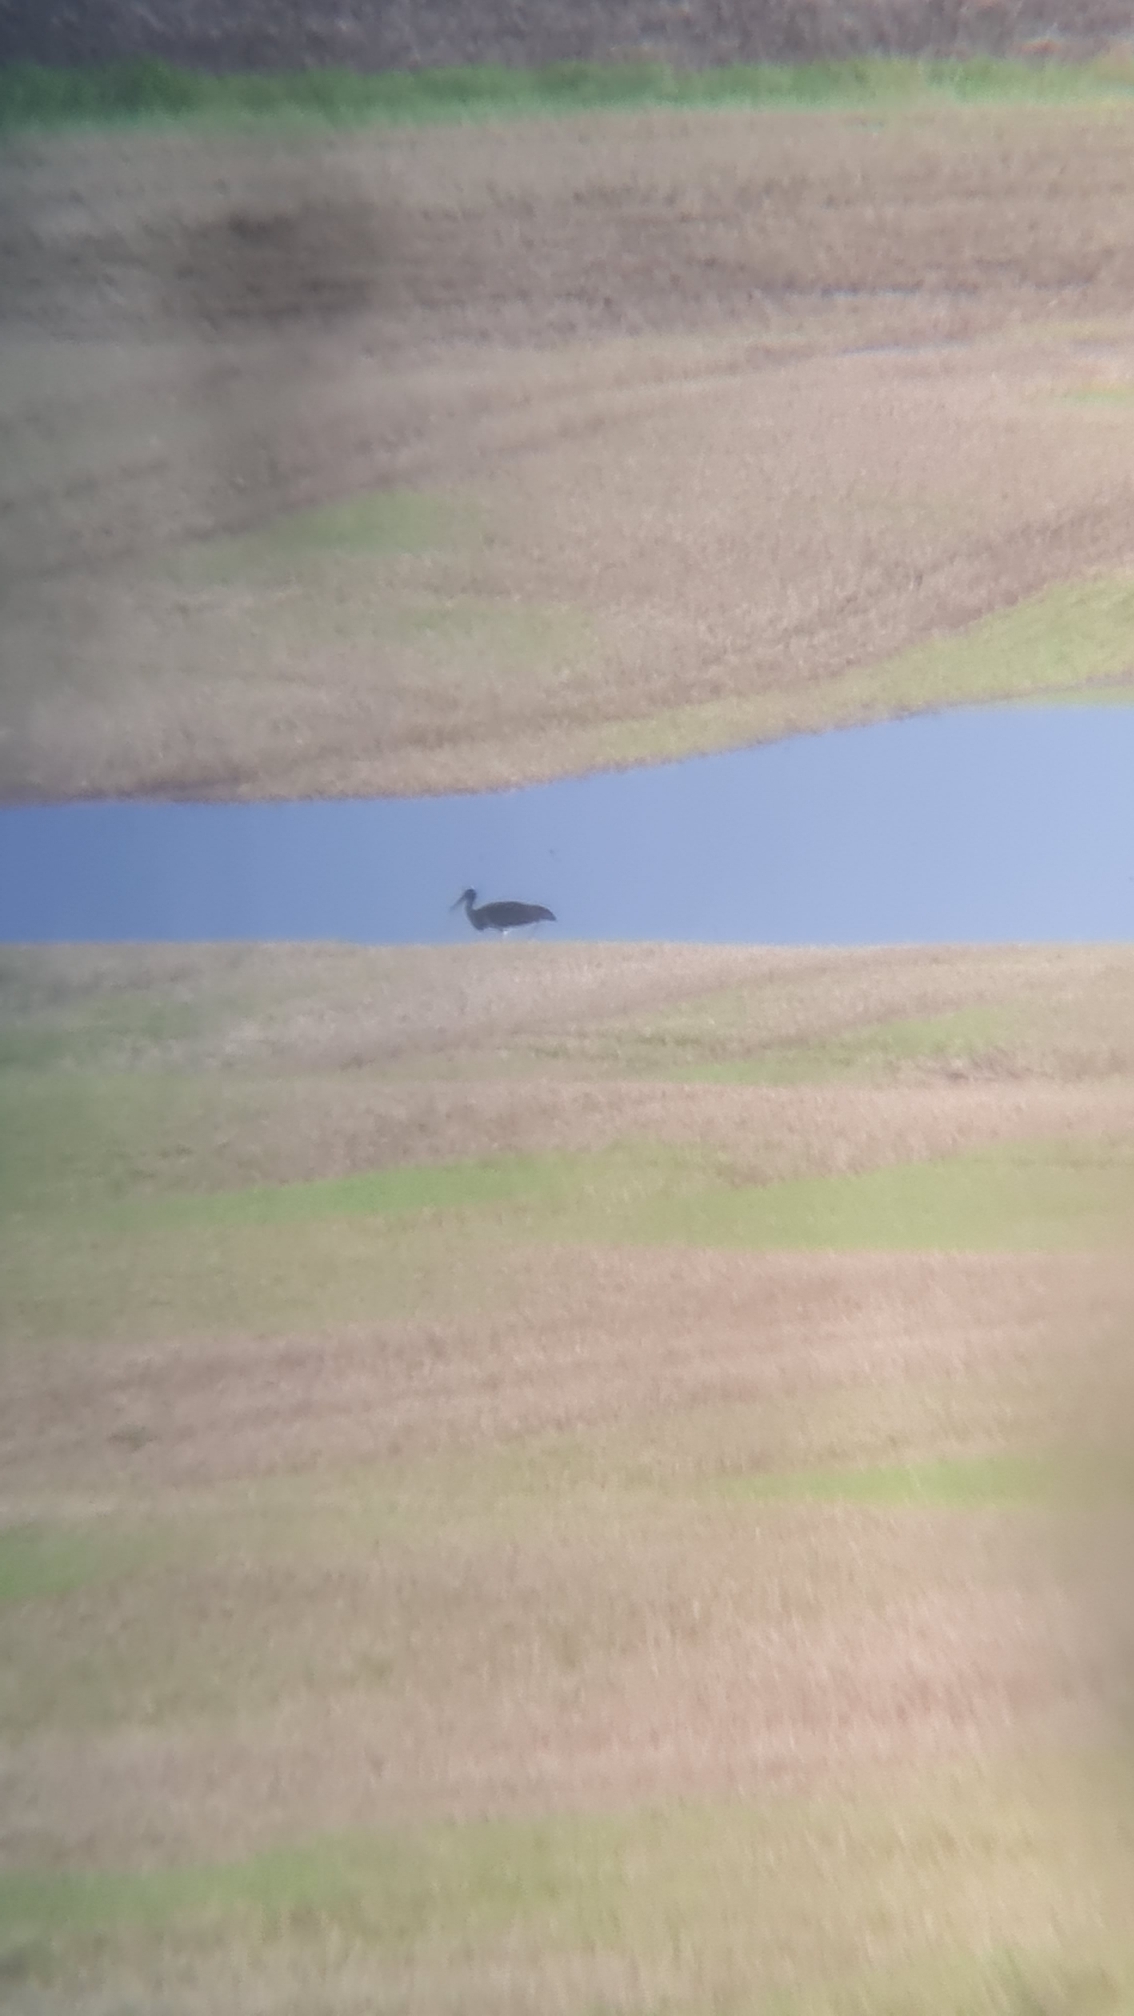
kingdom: Animalia
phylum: Chordata
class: Aves
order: Ciconiiformes
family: Ciconiidae
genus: Ciconia
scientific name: Ciconia nigra
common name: Sort stork
